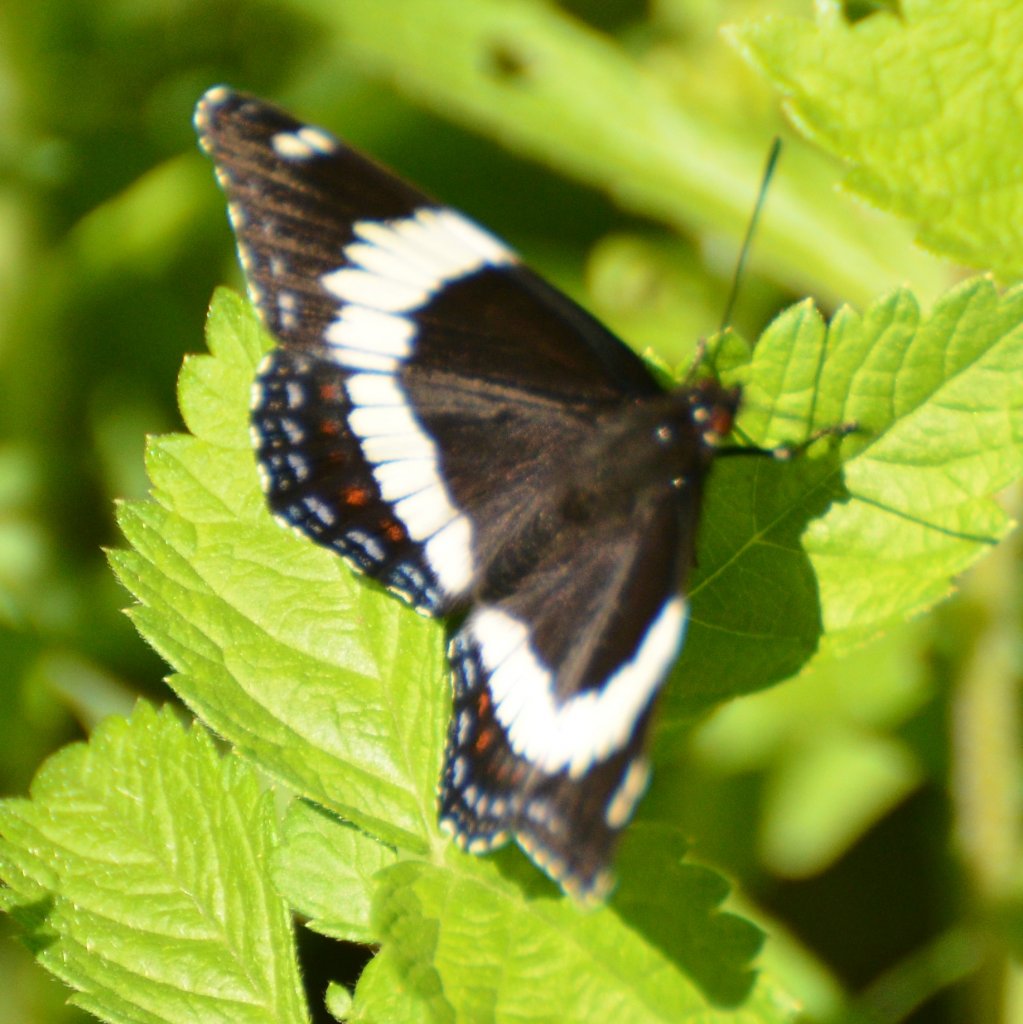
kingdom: Animalia
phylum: Arthropoda
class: Insecta
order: Lepidoptera
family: Nymphalidae
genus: Limenitis
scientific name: Limenitis arthemis
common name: Red-spotted Admiral
